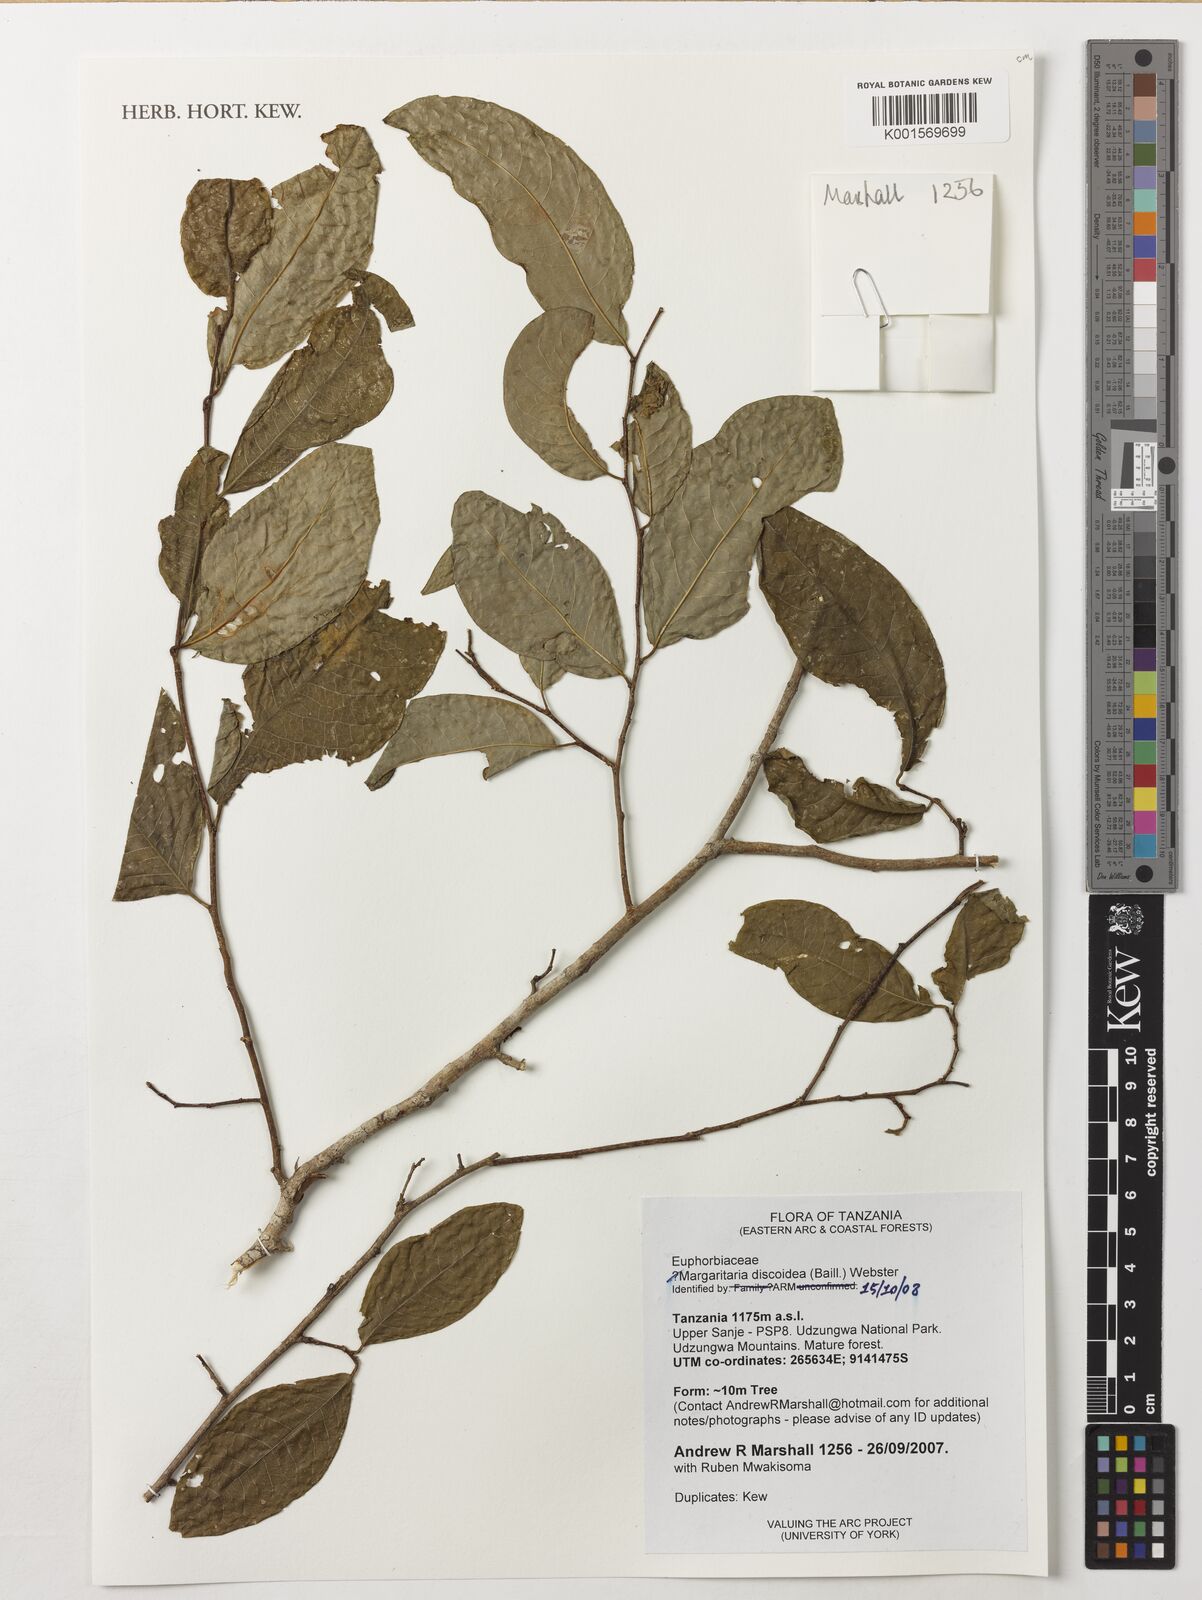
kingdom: Plantae
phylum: Tracheophyta
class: Magnoliopsida
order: Malpighiales
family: Phyllanthaceae
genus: Margaritaria
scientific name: Margaritaria discoidea
